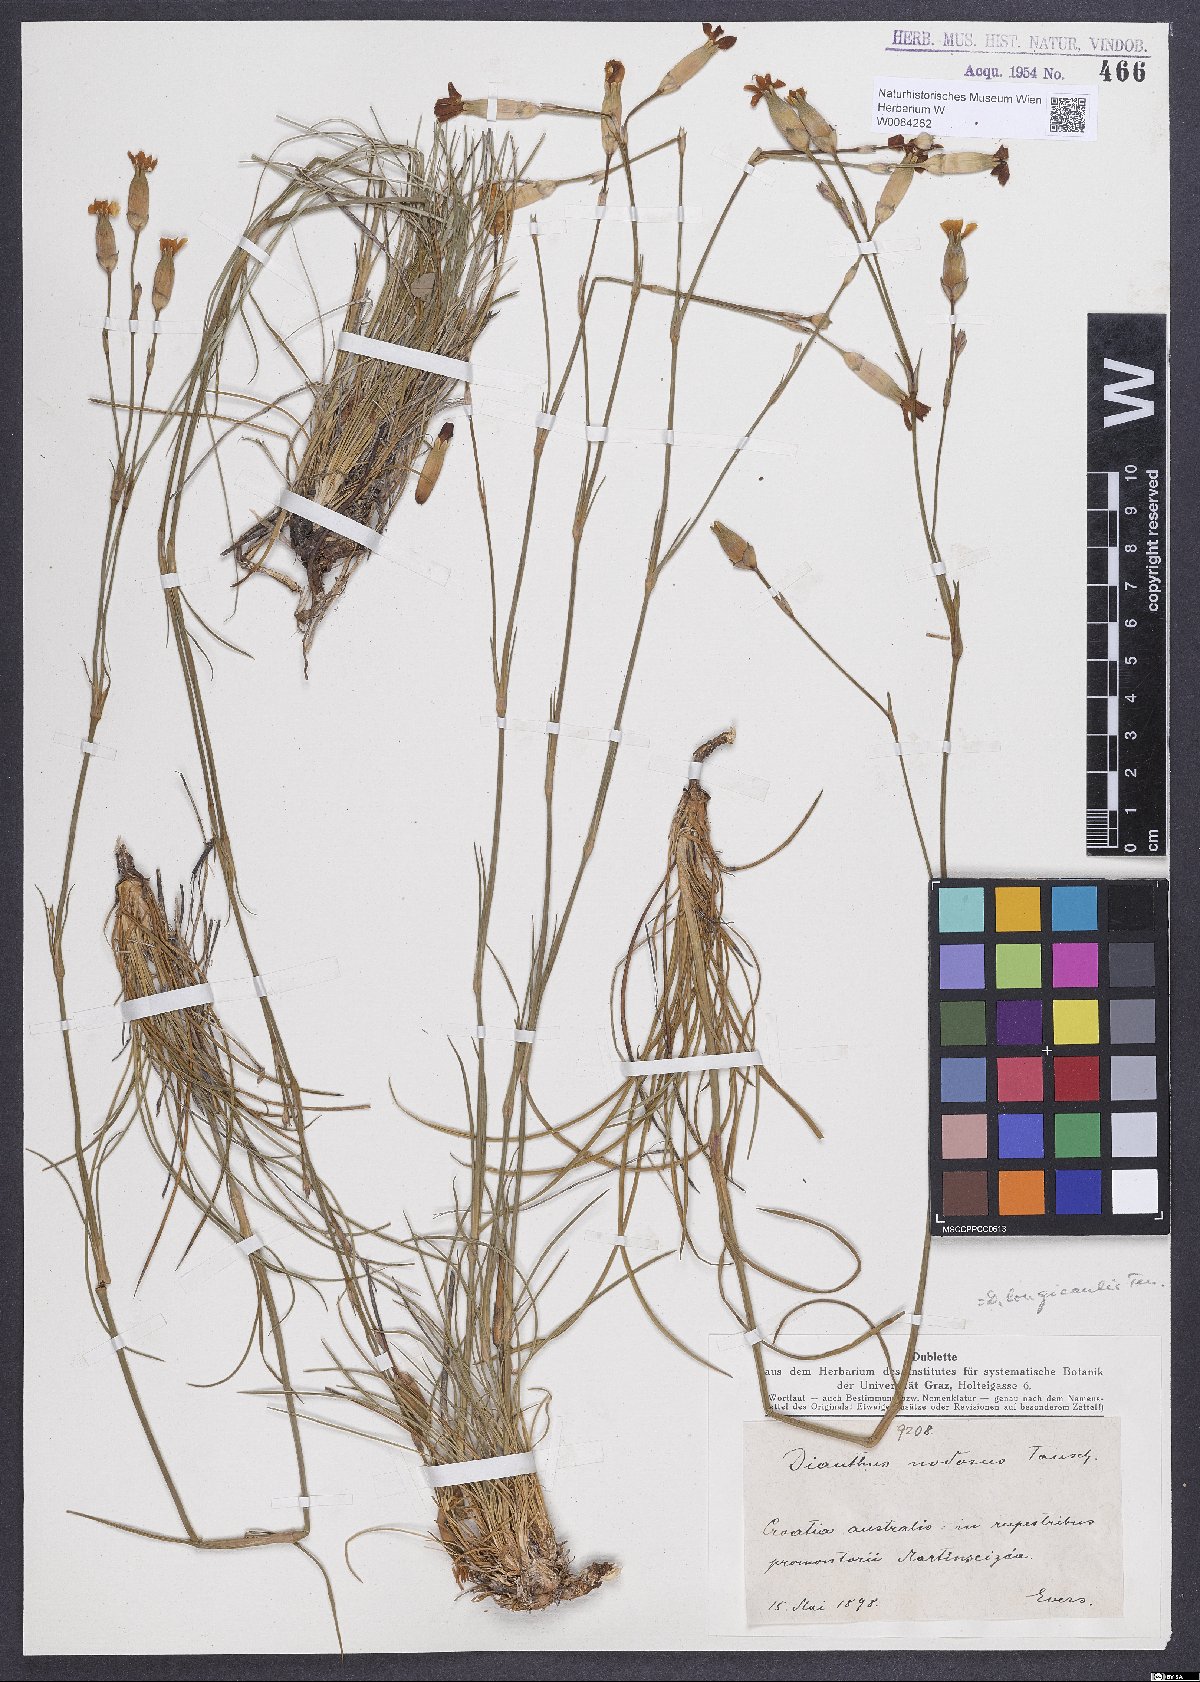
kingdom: Plantae
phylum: Tracheophyta
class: Magnoliopsida
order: Caryophyllales
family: Caryophyllaceae
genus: Dianthus
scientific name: Dianthus virgineus
